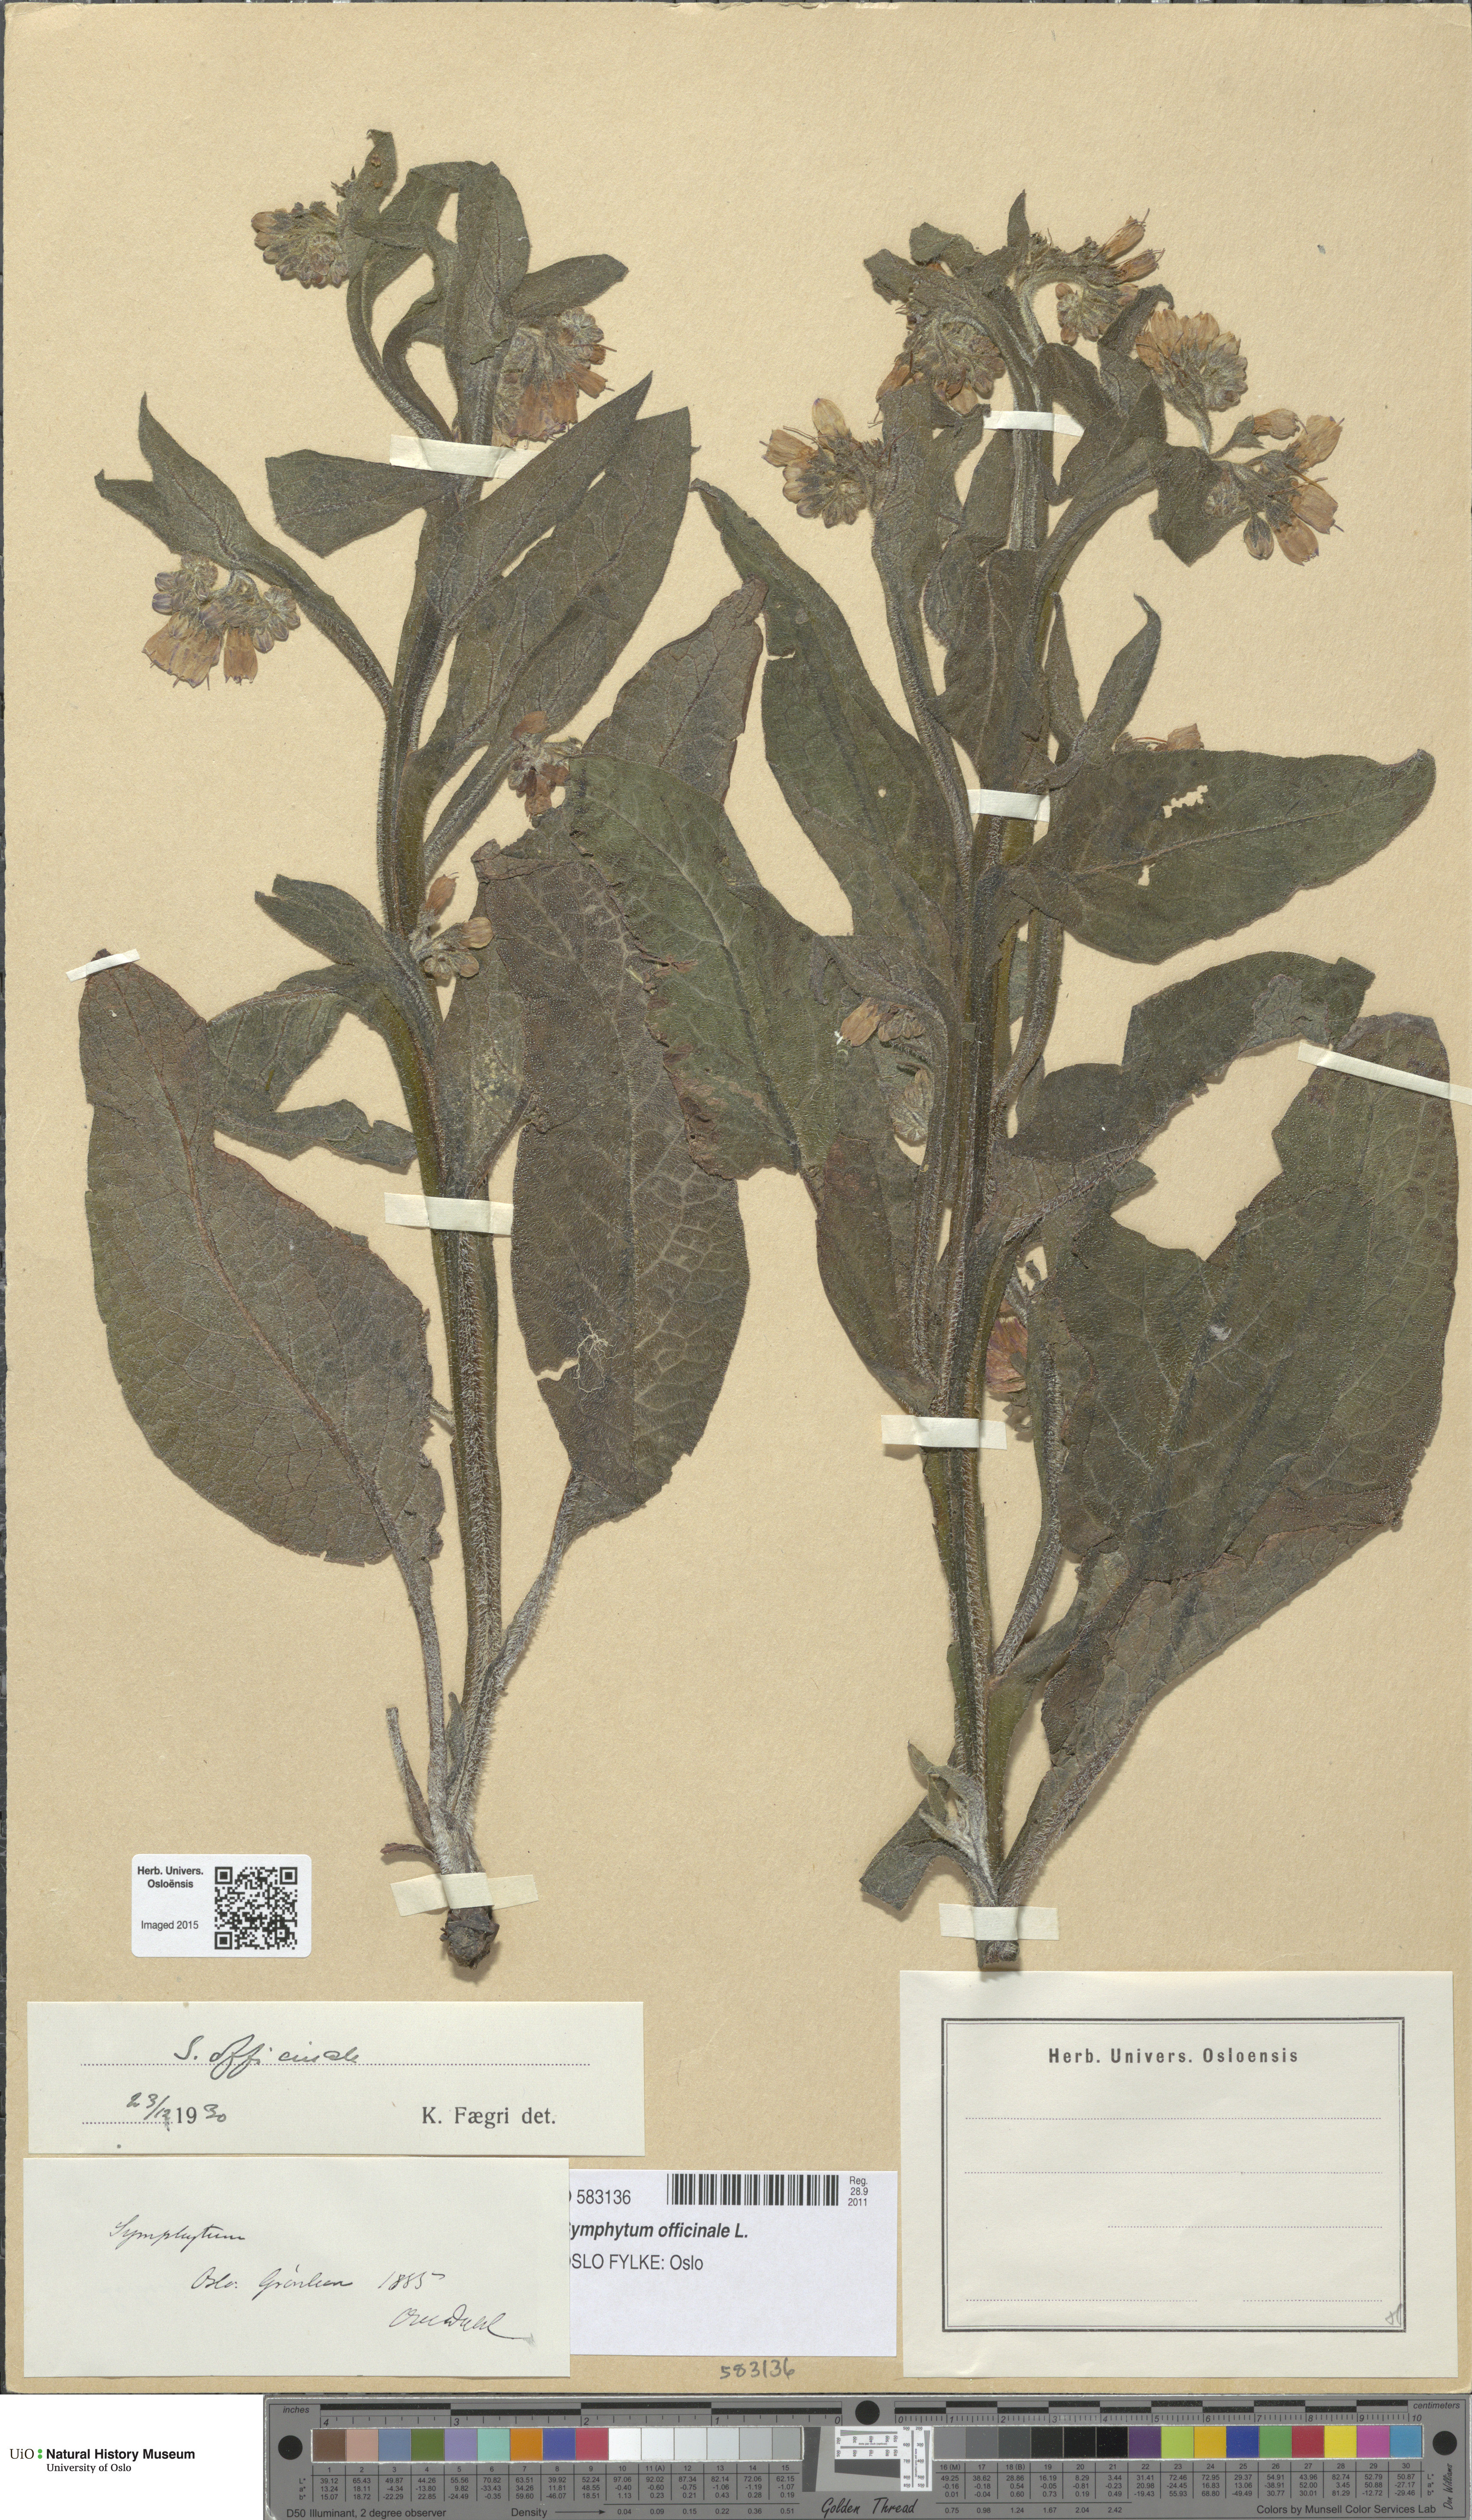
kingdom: Plantae
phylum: Tracheophyta
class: Magnoliopsida
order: Boraginales
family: Boraginaceae
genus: Symphytum
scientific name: Symphytum officinale
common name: Common comfrey
